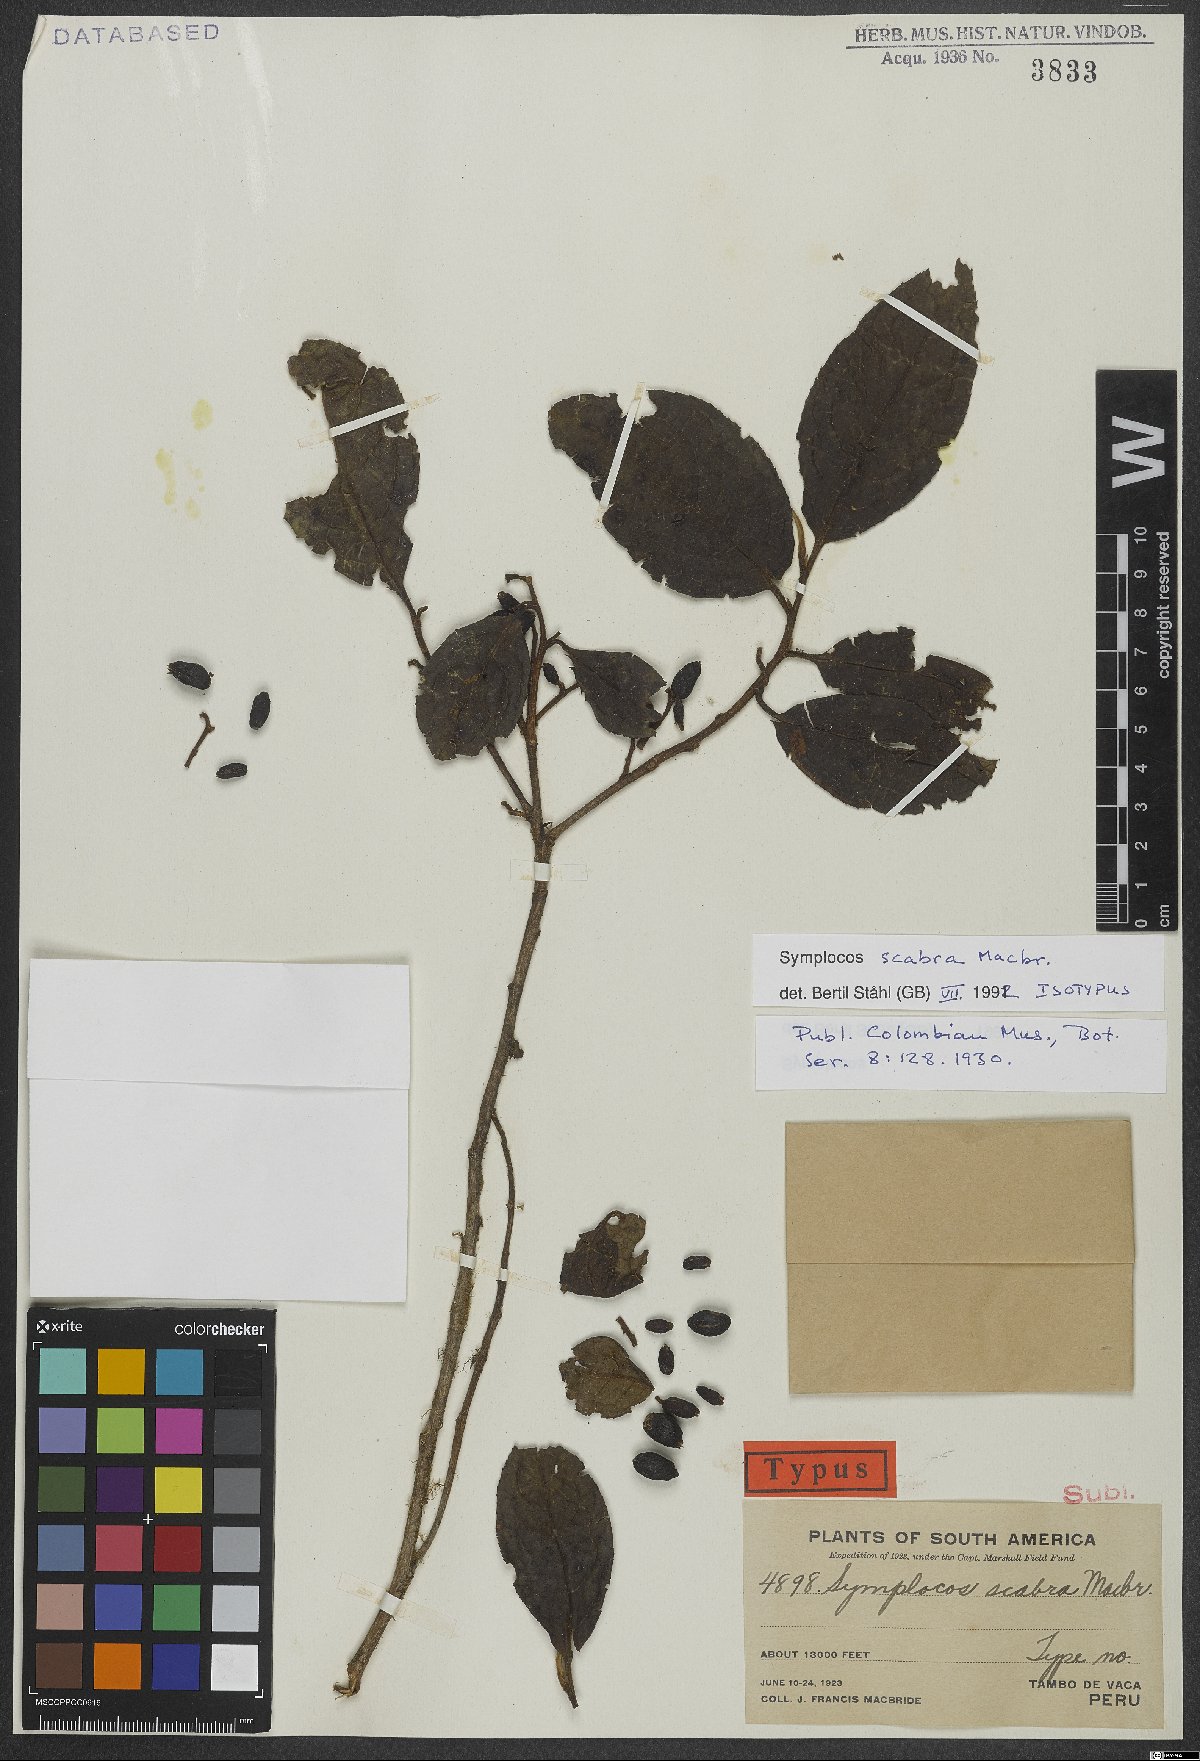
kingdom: Plantae
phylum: Tracheophyta
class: Magnoliopsida
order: Ericales
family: Symplocaceae
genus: Symplocos
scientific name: Symplocos scabra
